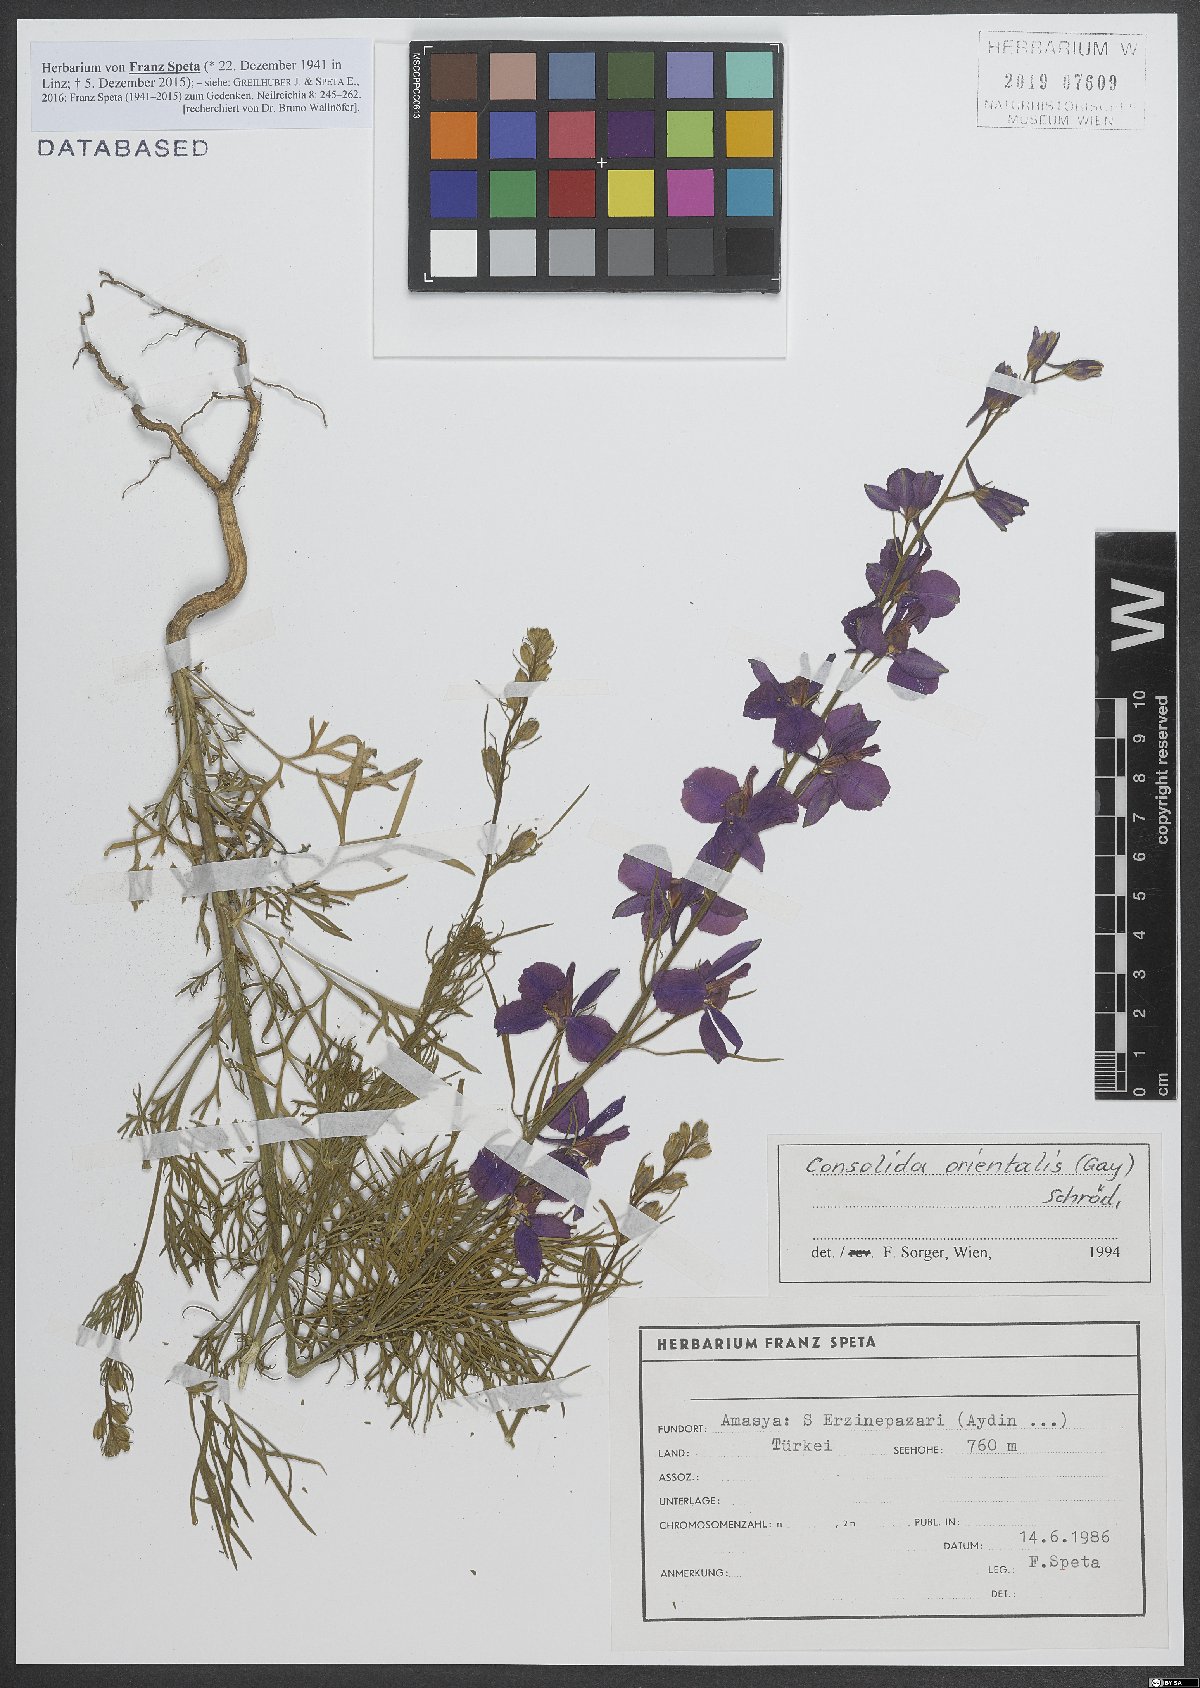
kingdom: Plantae
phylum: Tracheophyta
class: Magnoliopsida
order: Ranunculales
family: Ranunculaceae
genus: Delphinium
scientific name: Delphinium hispanicum
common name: Oriental knight's-spur
